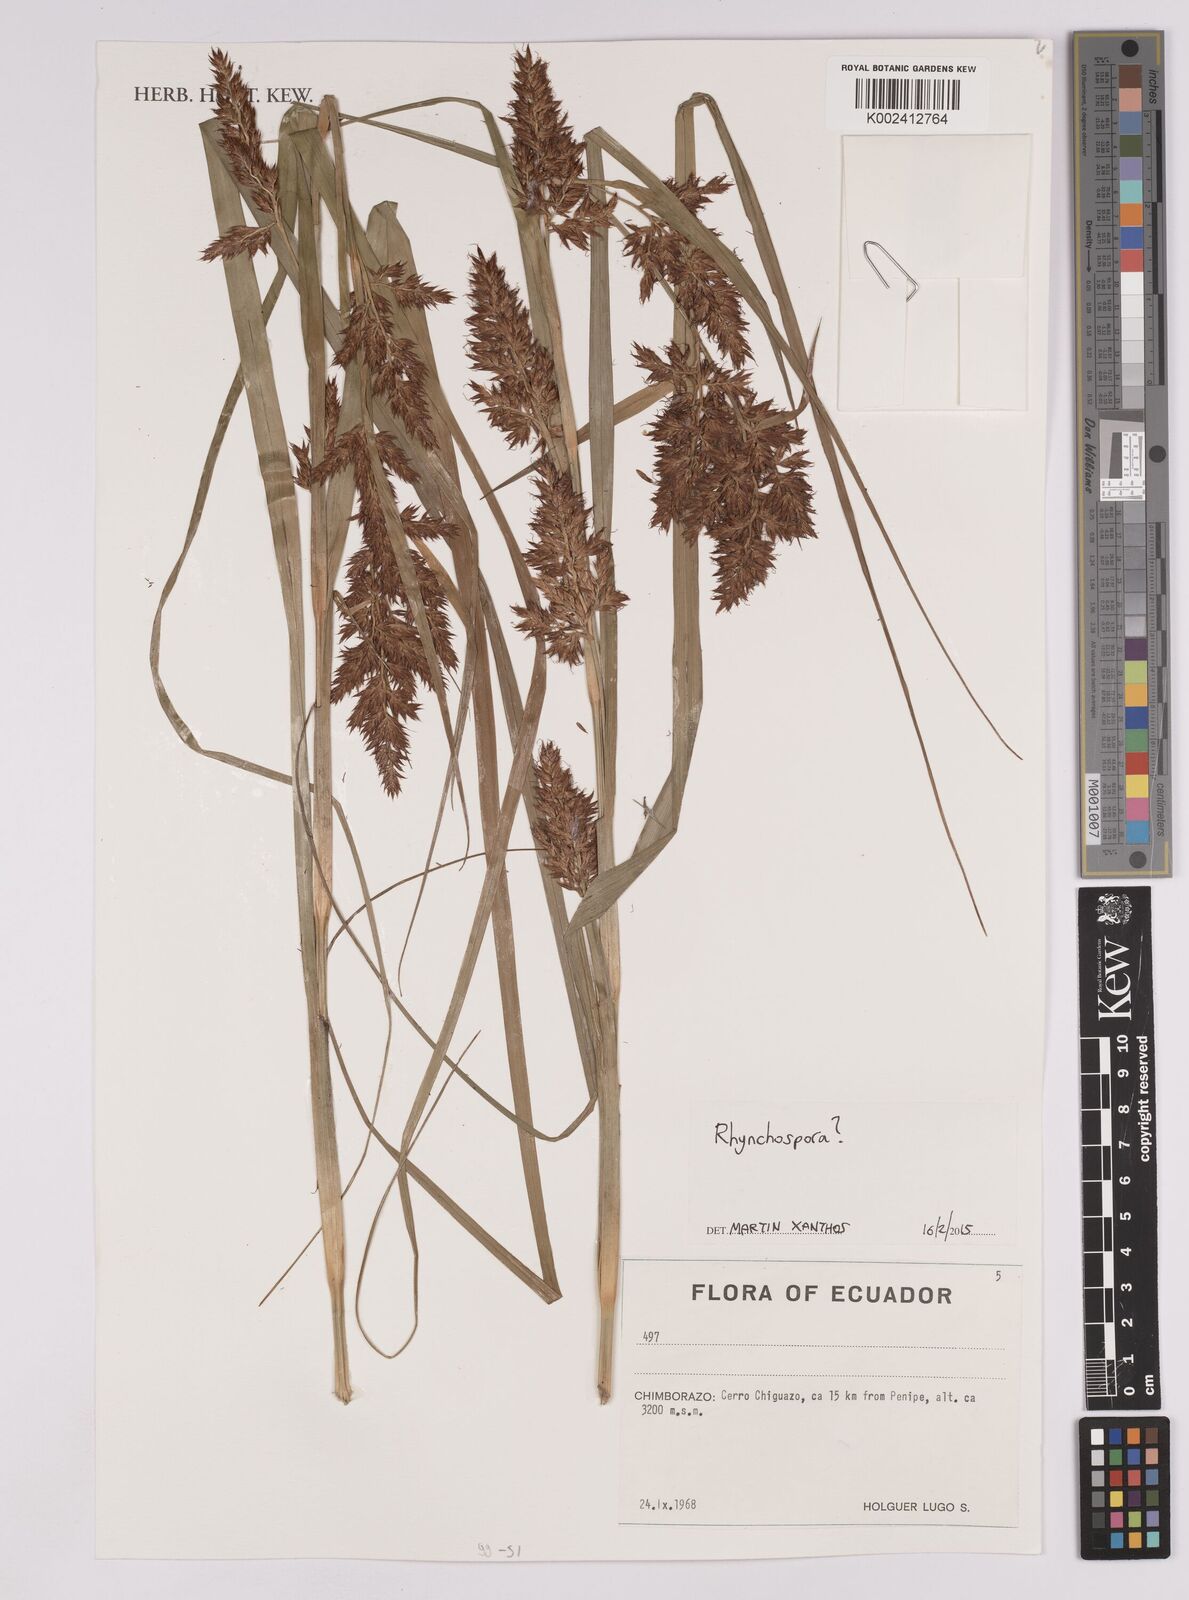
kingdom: Plantae
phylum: Tracheophyta
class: Liliopsida
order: Poales
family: Cyperaceae
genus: Rhynchospora
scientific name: Rhynchospora
